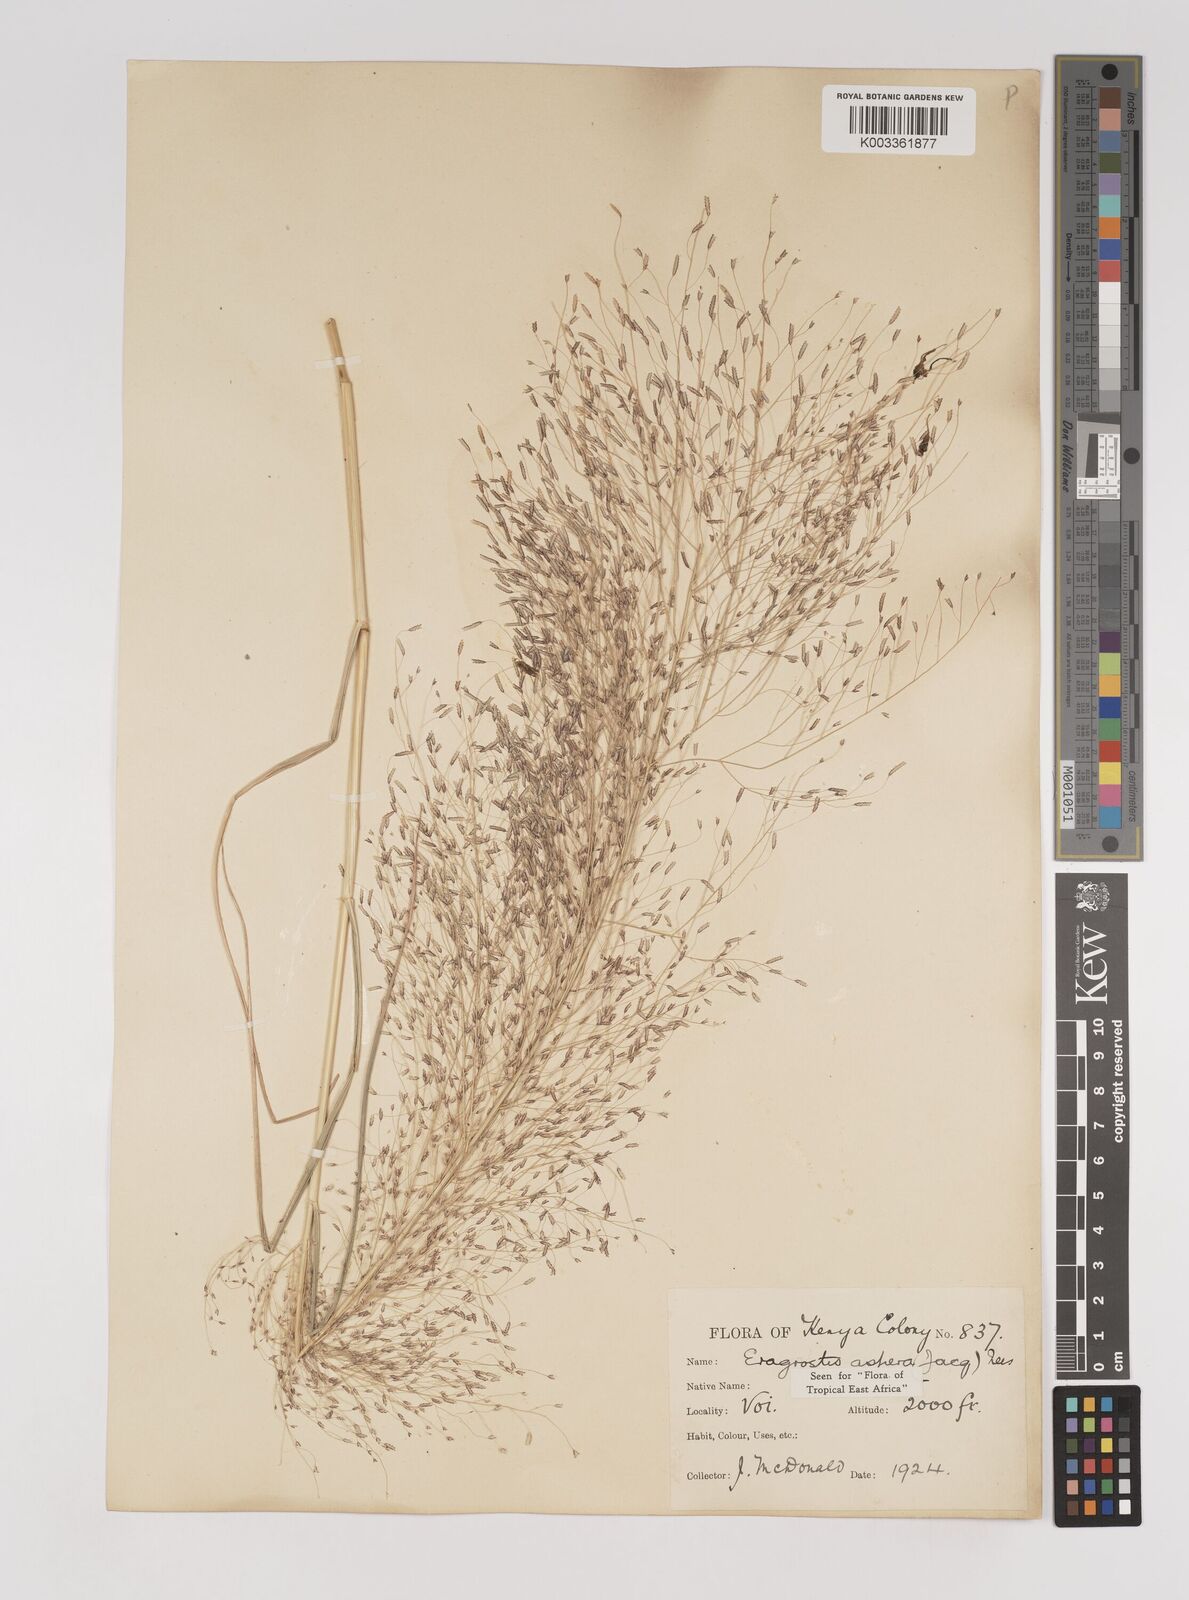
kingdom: Plantae
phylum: Tracheophyta
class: Liliopsida
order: Poales
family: Poaceae
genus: Eragrostis
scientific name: Eragrostis aspera
